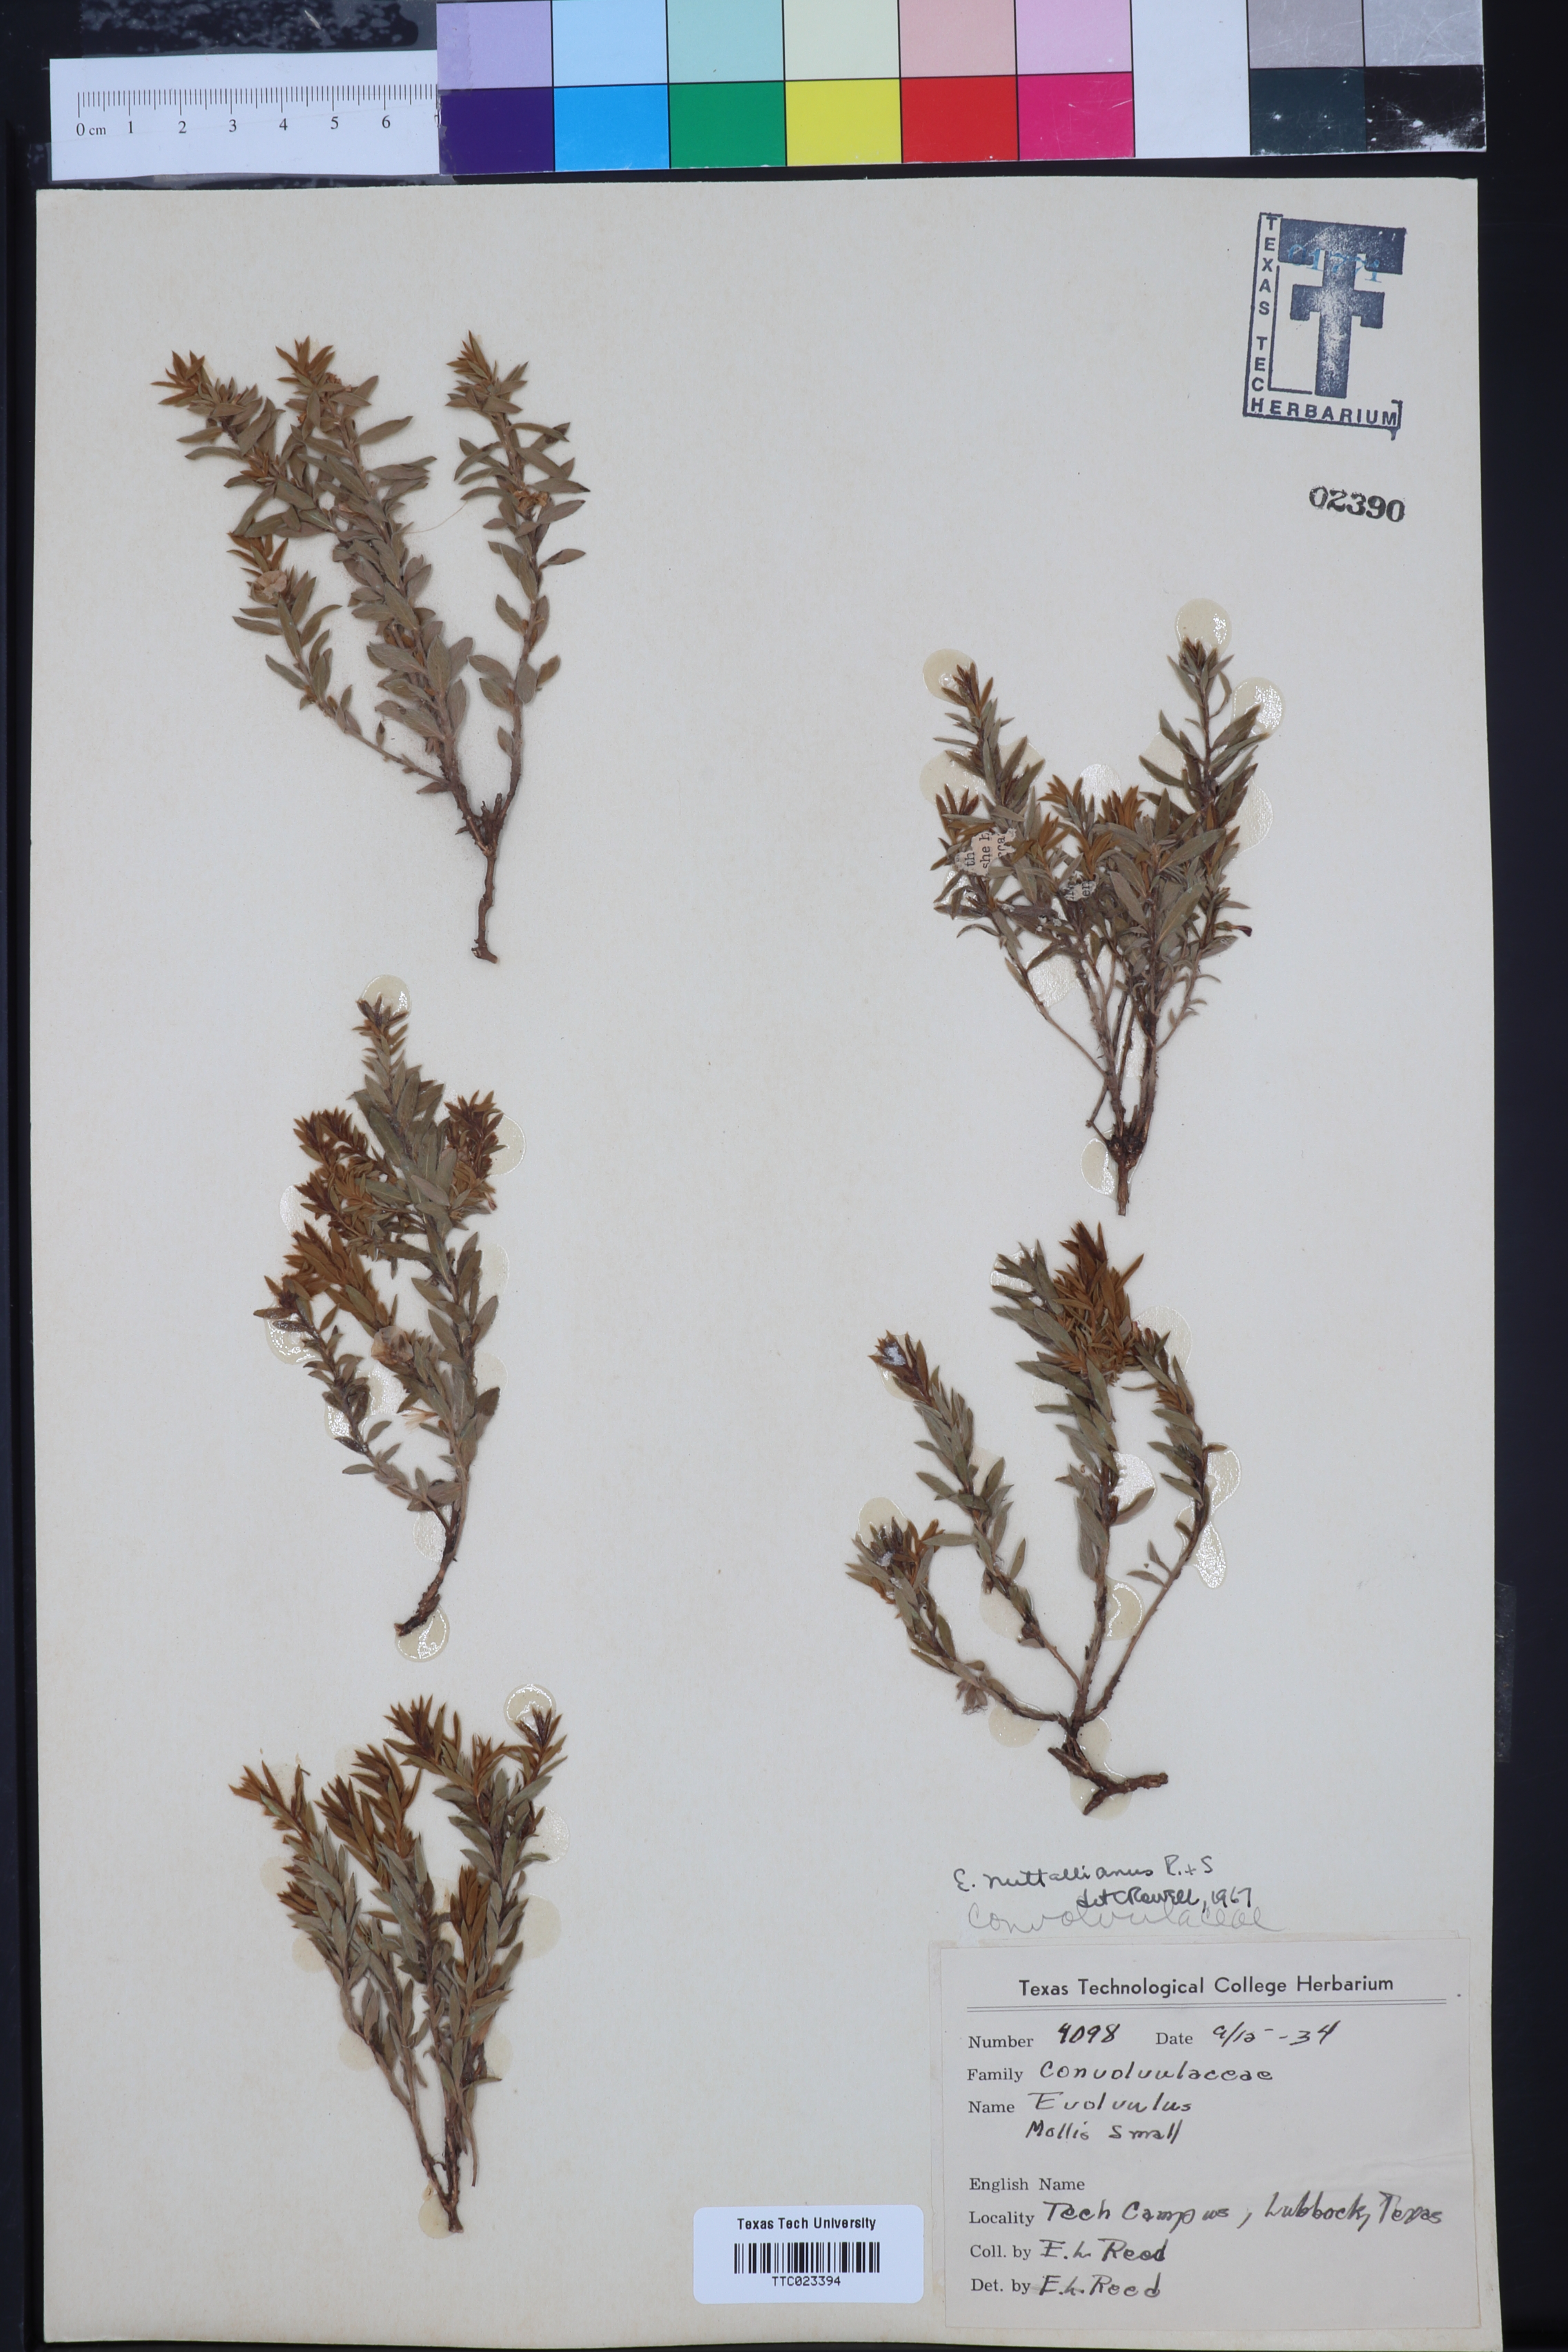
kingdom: Plantae
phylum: Tracheophyta
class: Magnoliopsida
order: Solanales
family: Convolvulaceae
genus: Evolvulus
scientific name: Evolvulus nuttallianus
